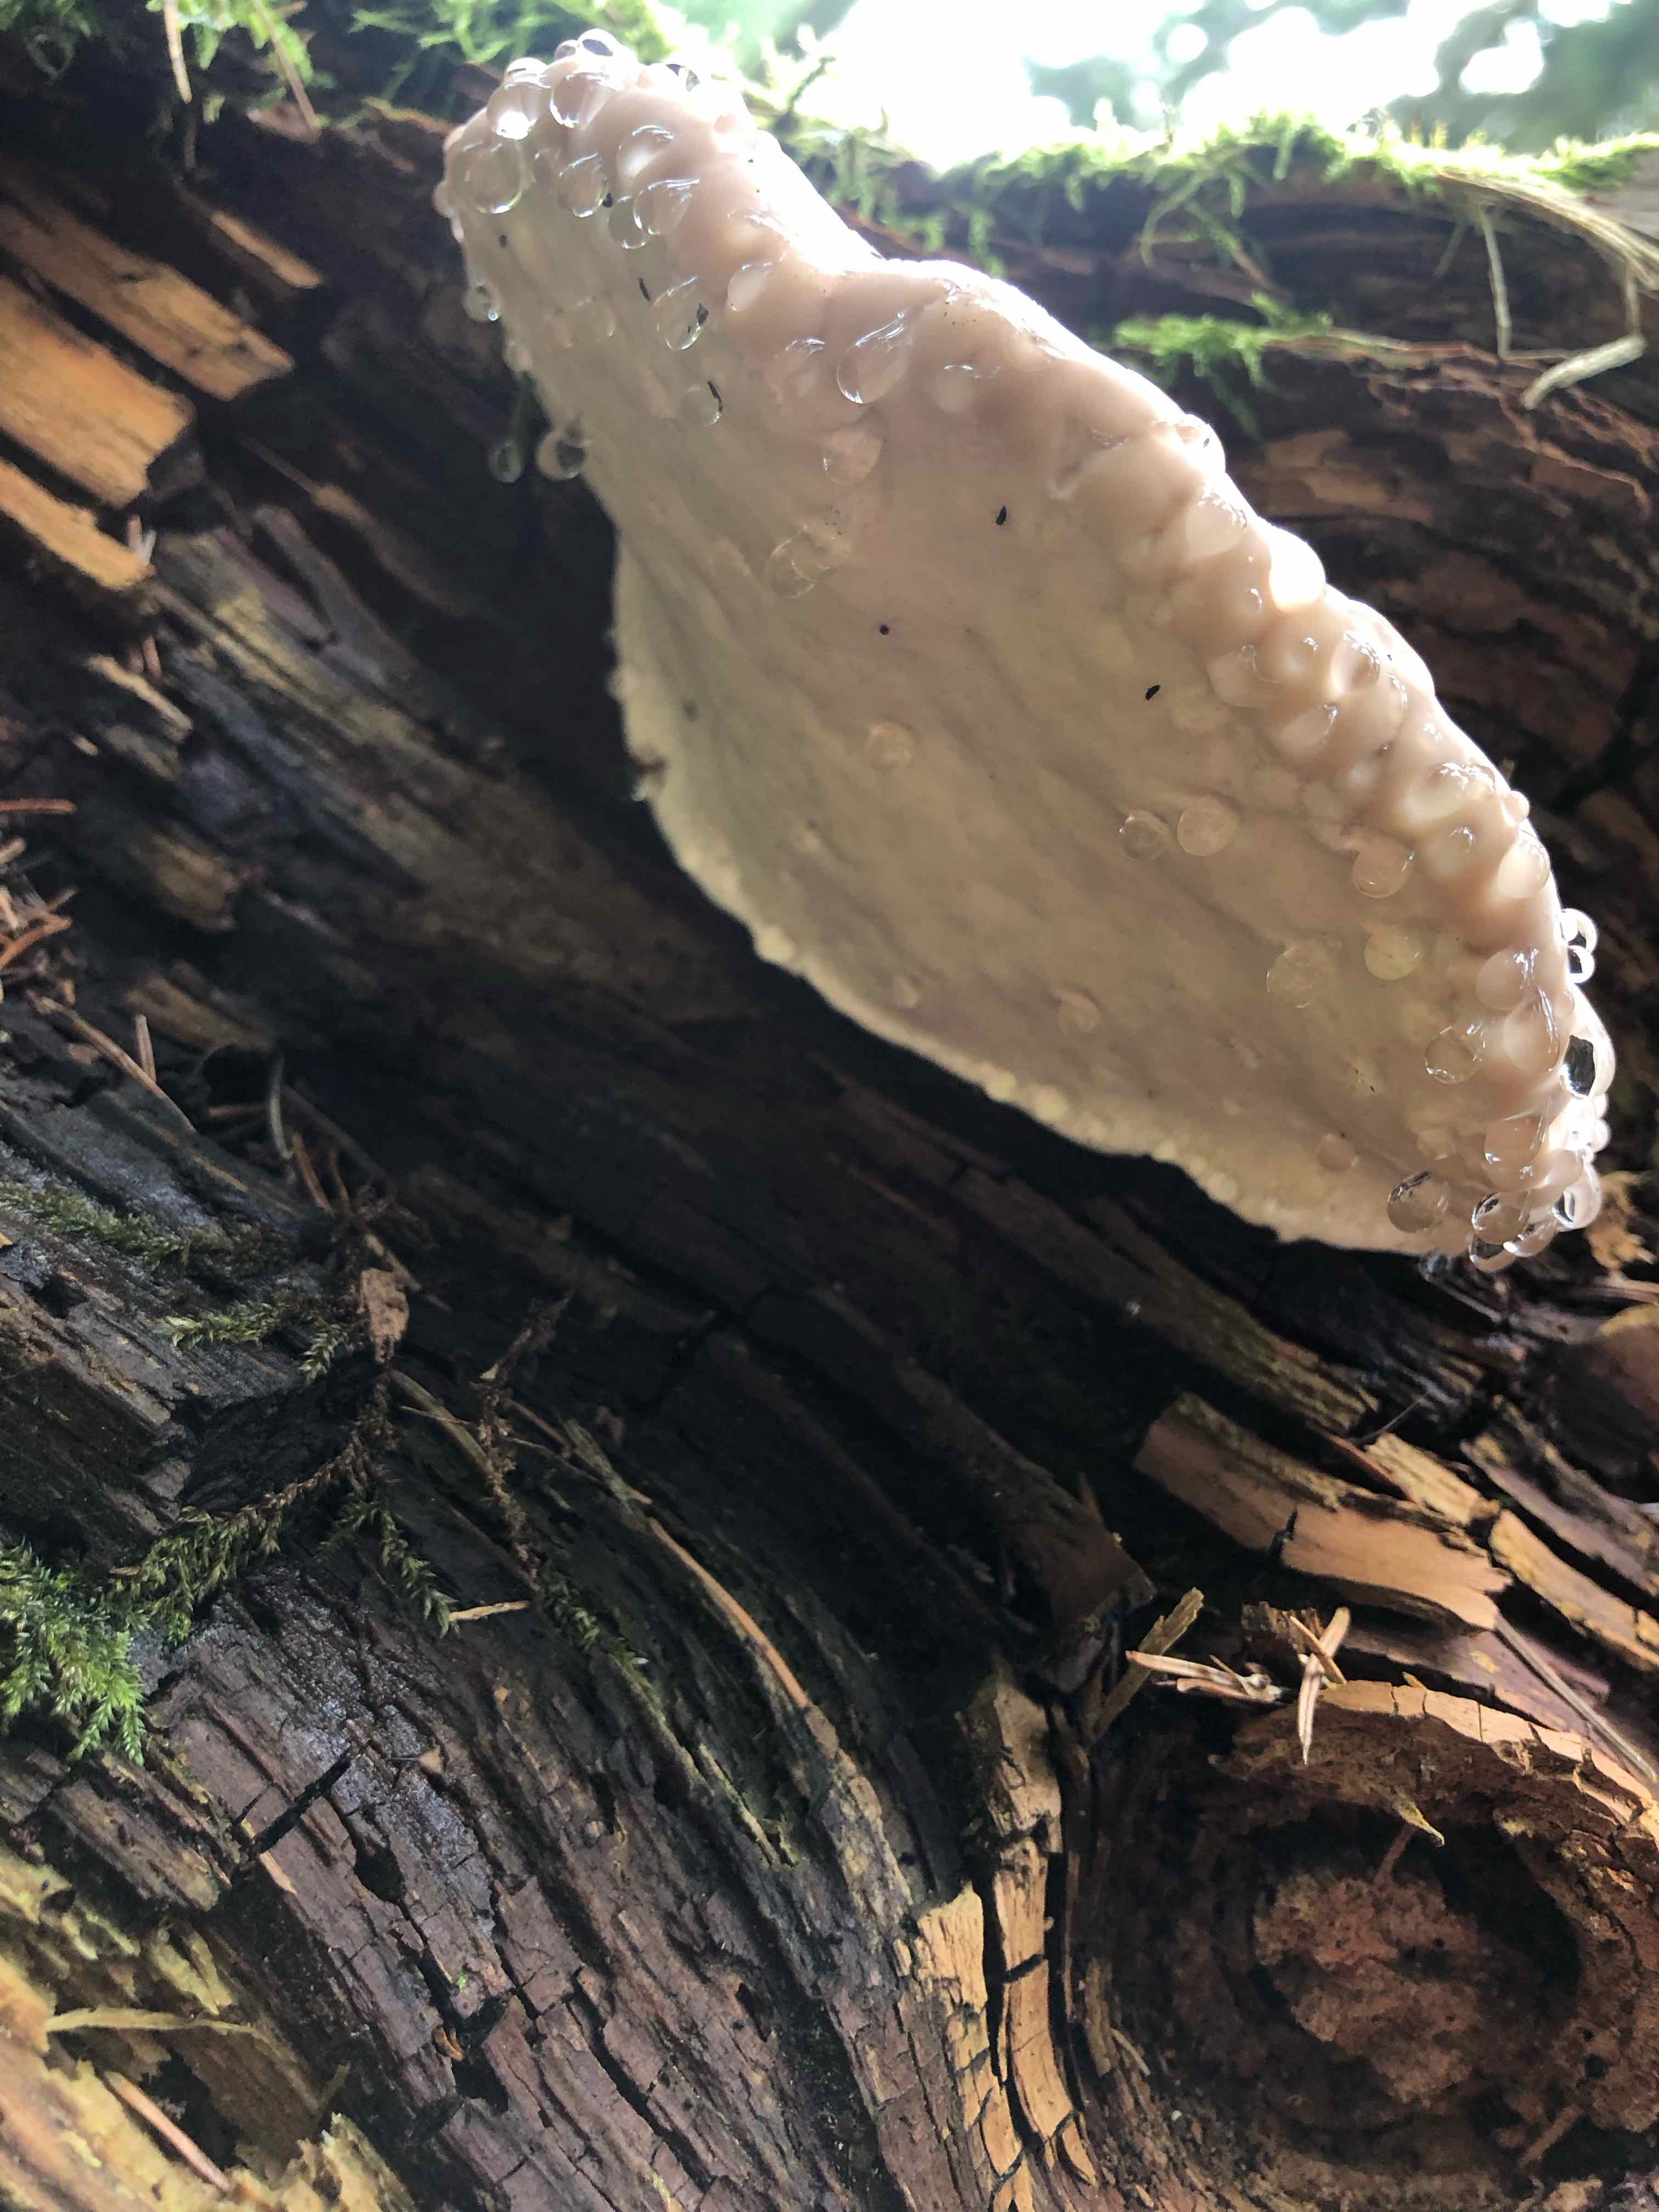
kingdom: Fungi
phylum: Basidiomycota
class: Agaricomycetes
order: Polyporales
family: Fomitopsidaceae
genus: Fomitopsis
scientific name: Fomitopsis pinicola
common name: randbæltet hovporesvamp
